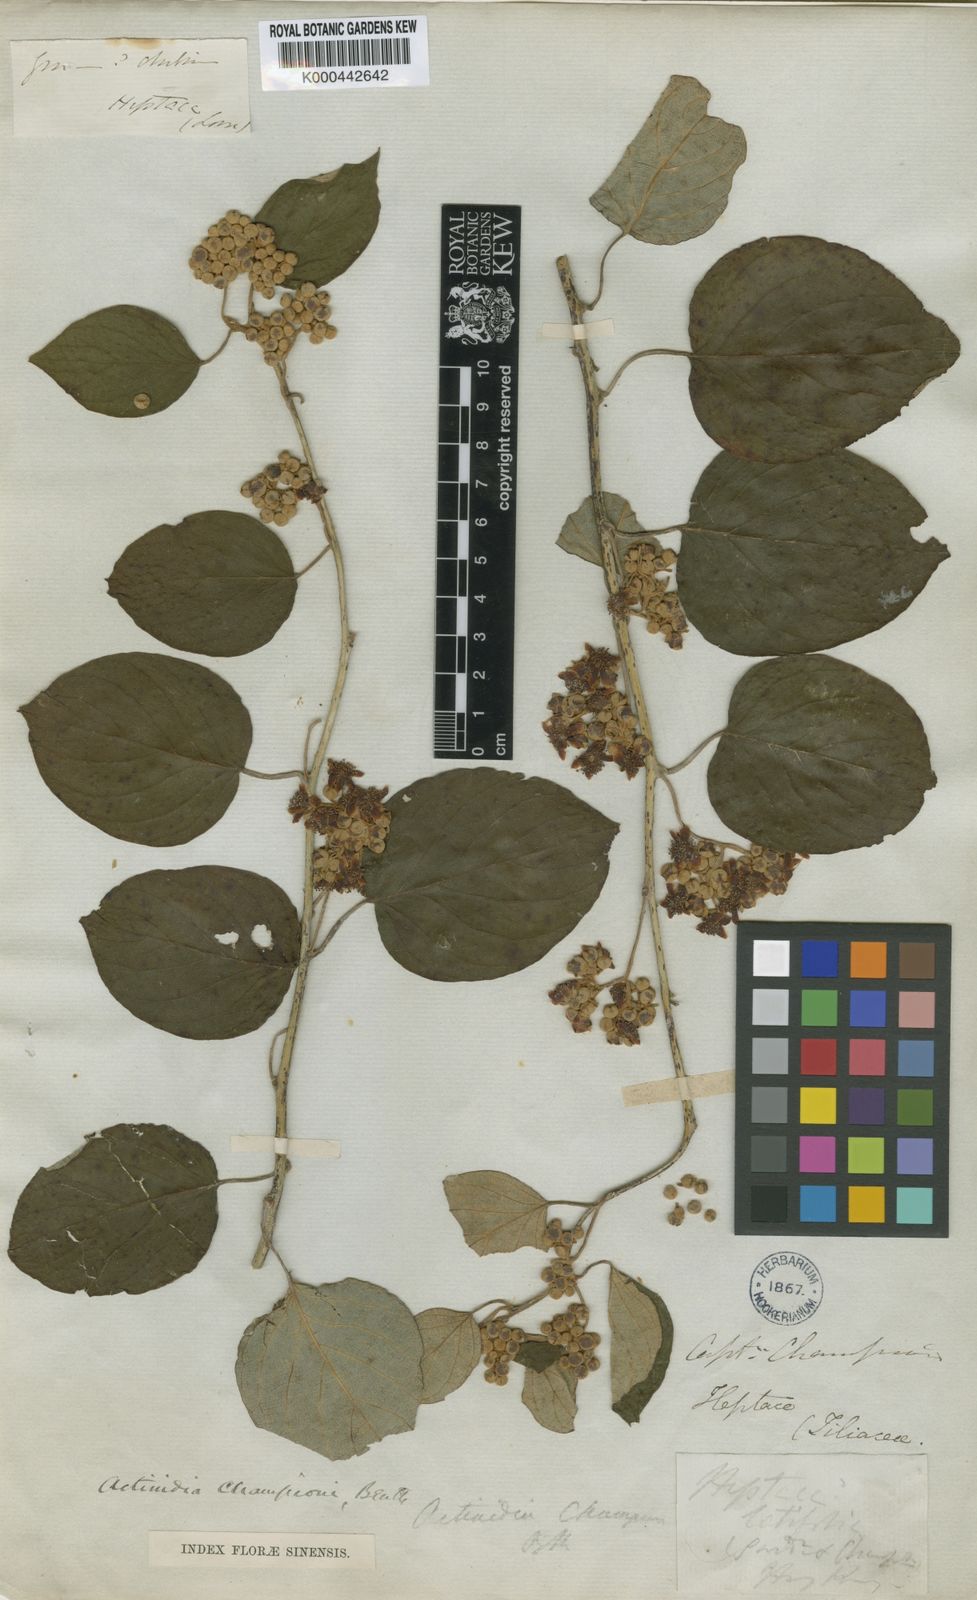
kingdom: Plantae
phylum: Tracheophyta
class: Magnoliopsida
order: Ericales
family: Actinidiaceae
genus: Actinidia
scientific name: Actinidia latifolia
